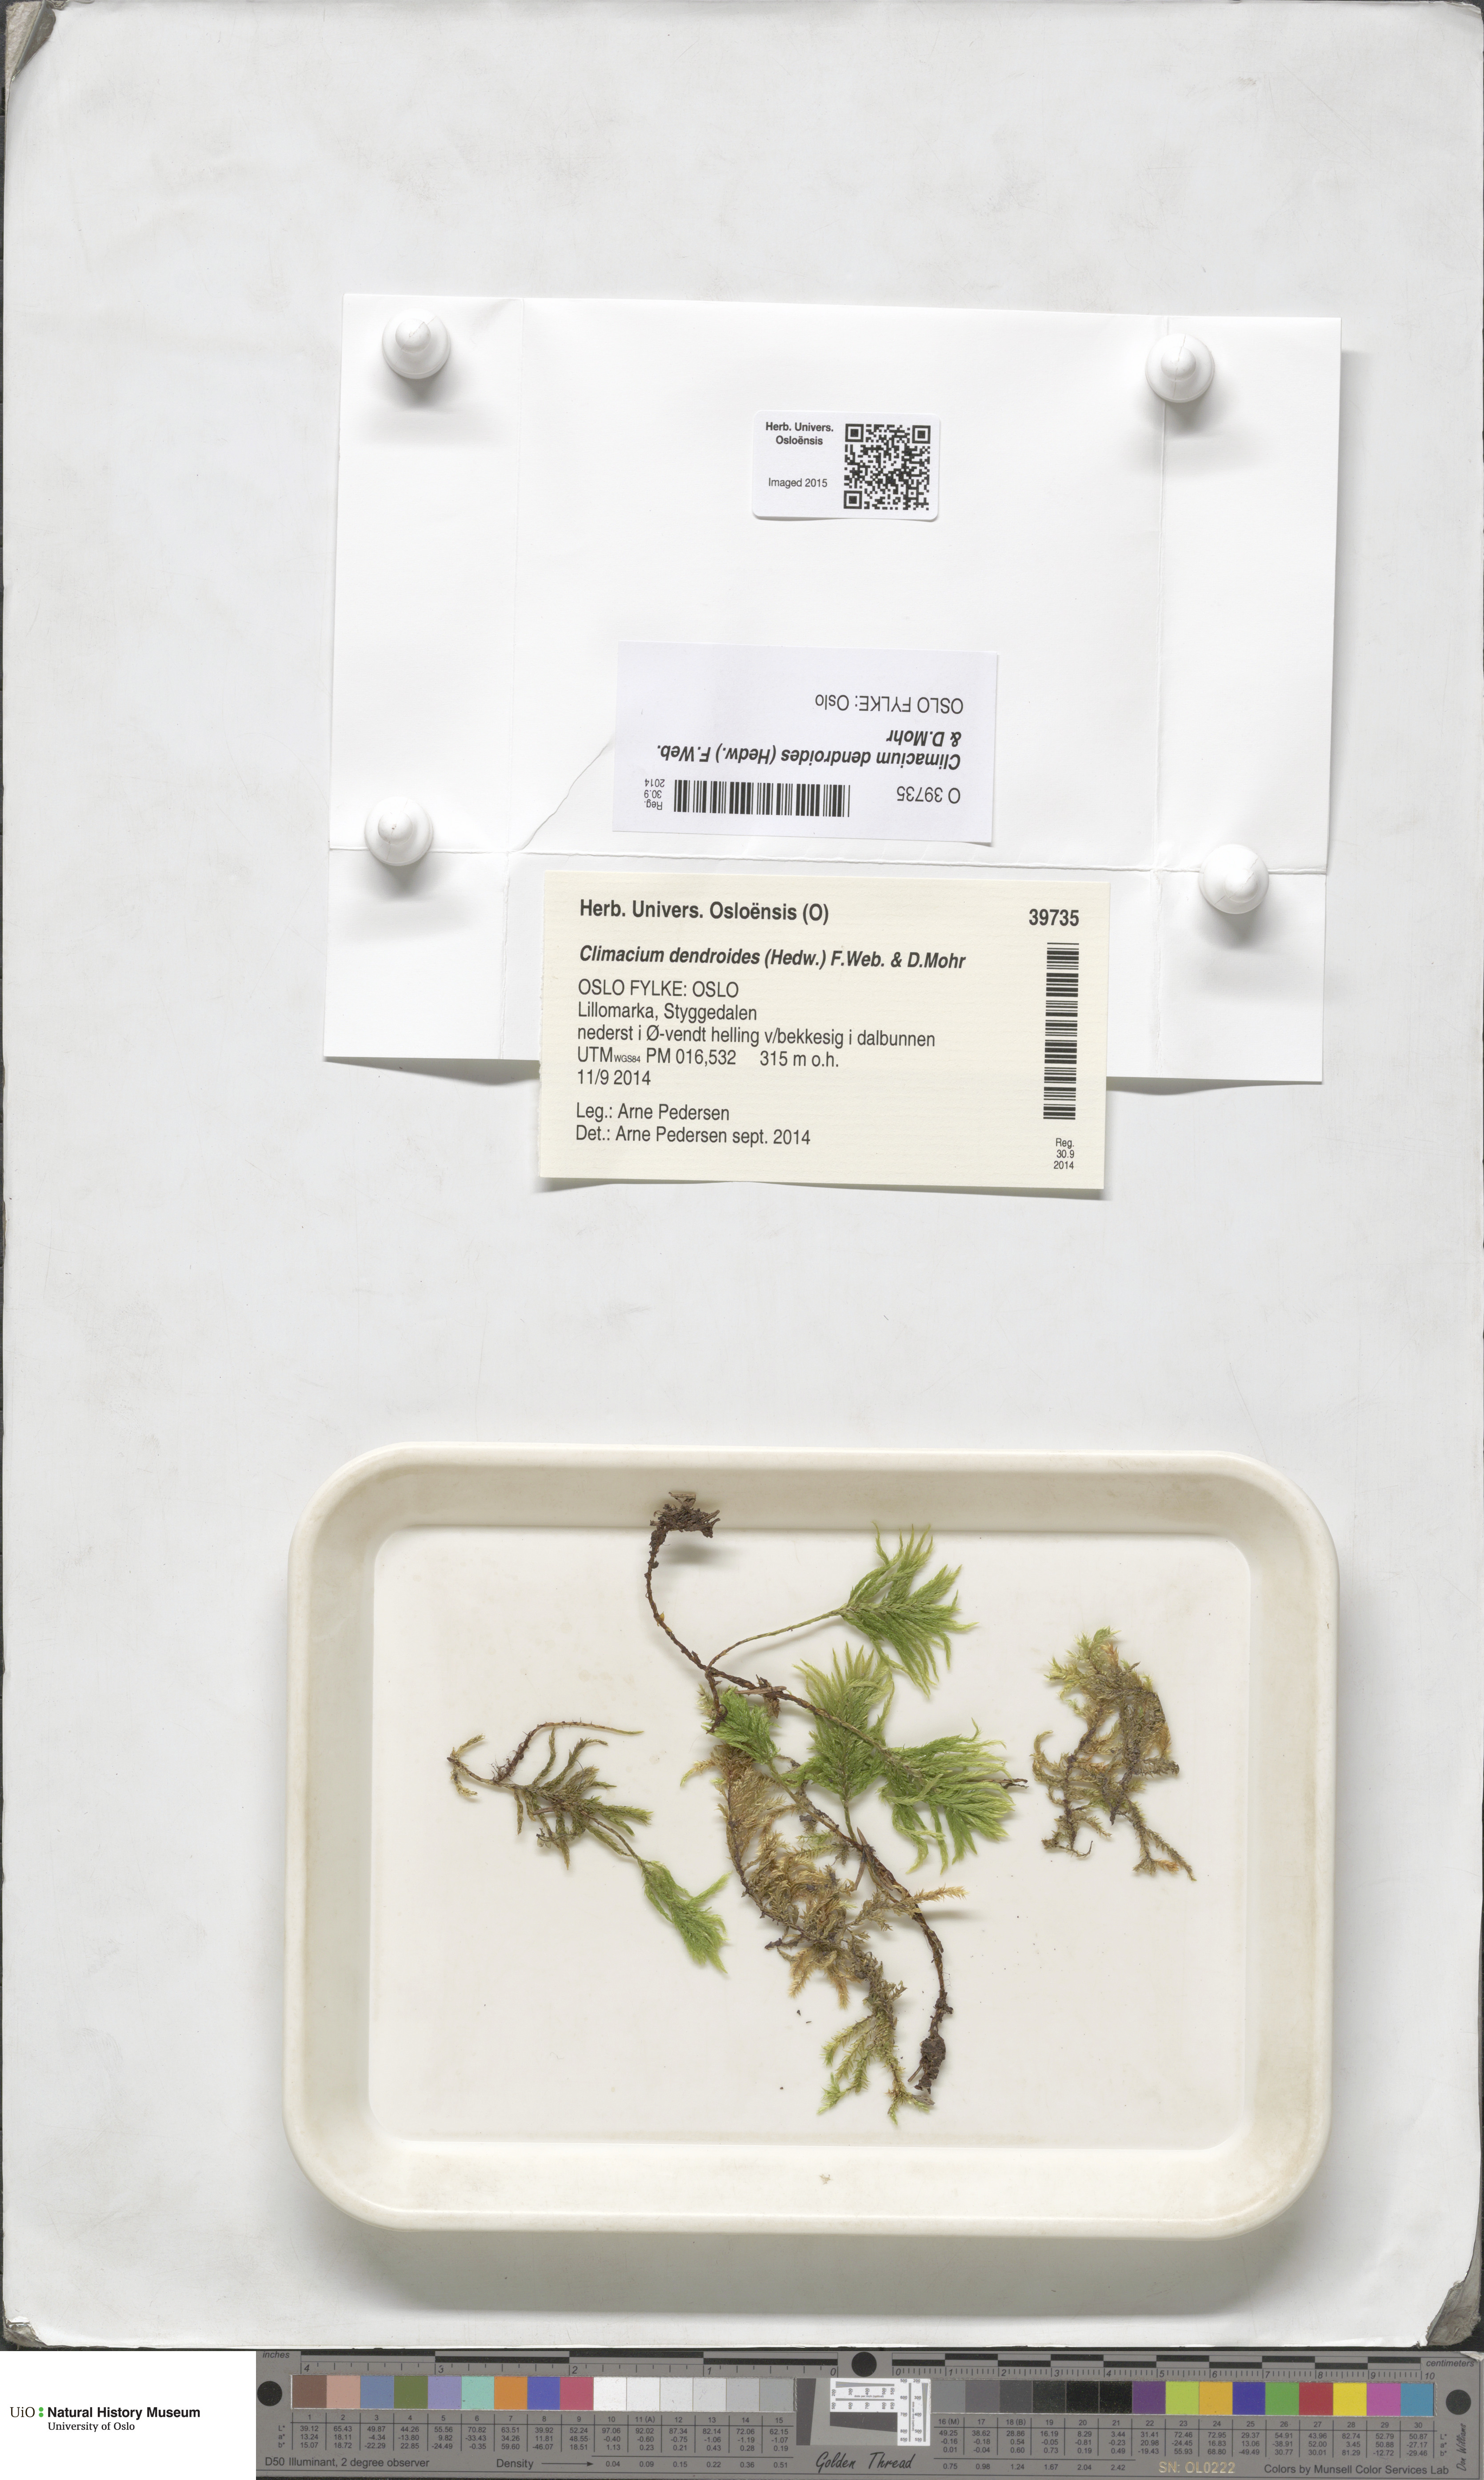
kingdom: Plantae
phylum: Bryophyta
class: Bryopsida
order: Hypnales
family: Climaciaceae
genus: Climacium
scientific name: Climacium dendroides
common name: Northern tree moss
